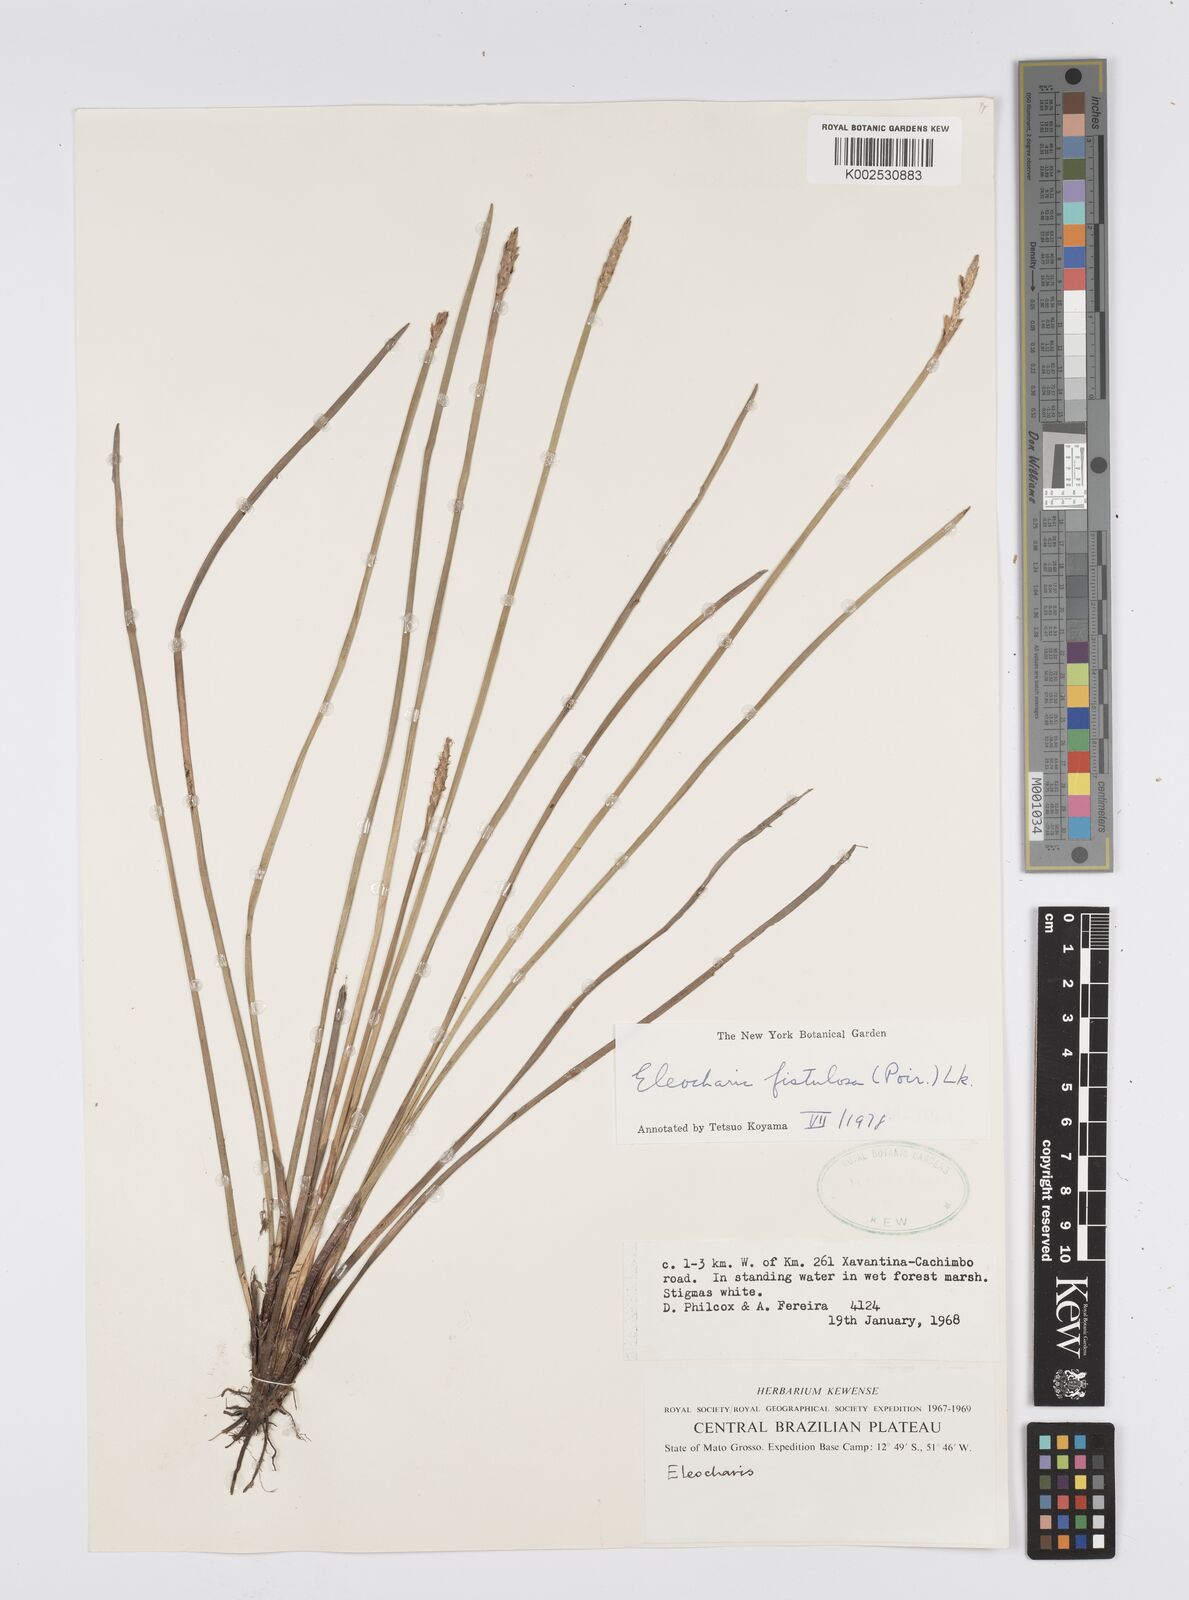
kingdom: Plantae
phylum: Tracheophyta
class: Liliopsida
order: Poales
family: Cyperaceae
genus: Eleocharis
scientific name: Eleocharis acutangula
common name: Acute spikerush
